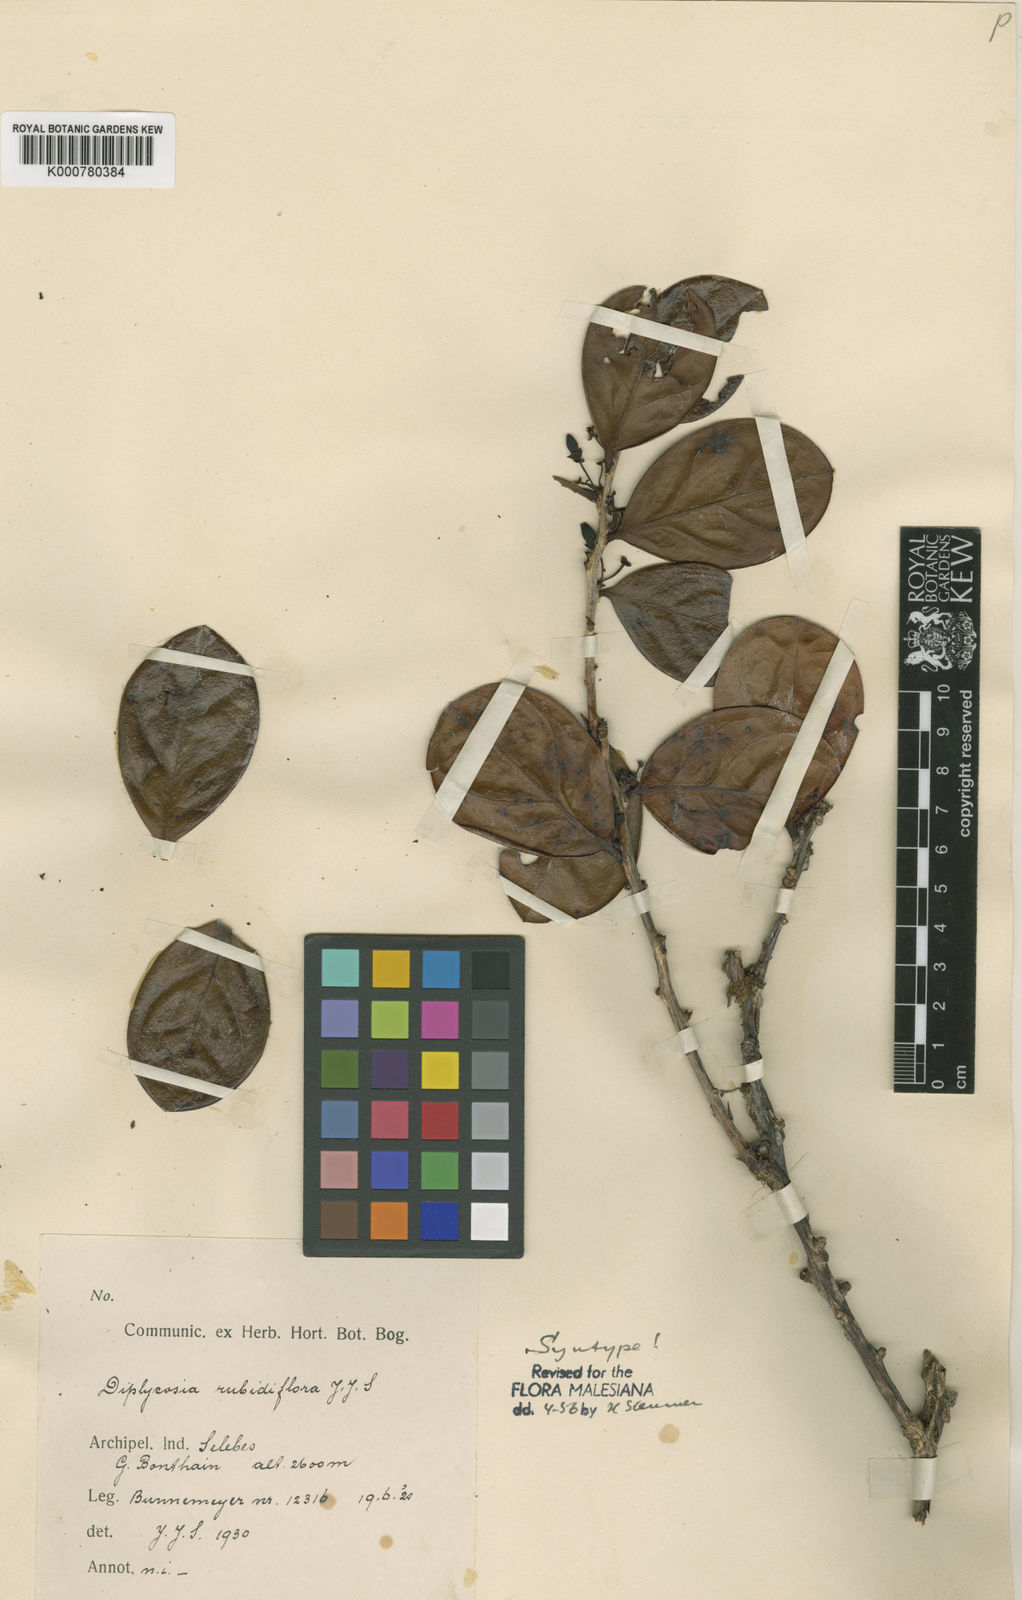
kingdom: Plantae
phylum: Tracheophyta
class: Magnoliopsida
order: Ericales
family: Ericaceae
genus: Gaultheria
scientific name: Gaultheria rubidiflora
